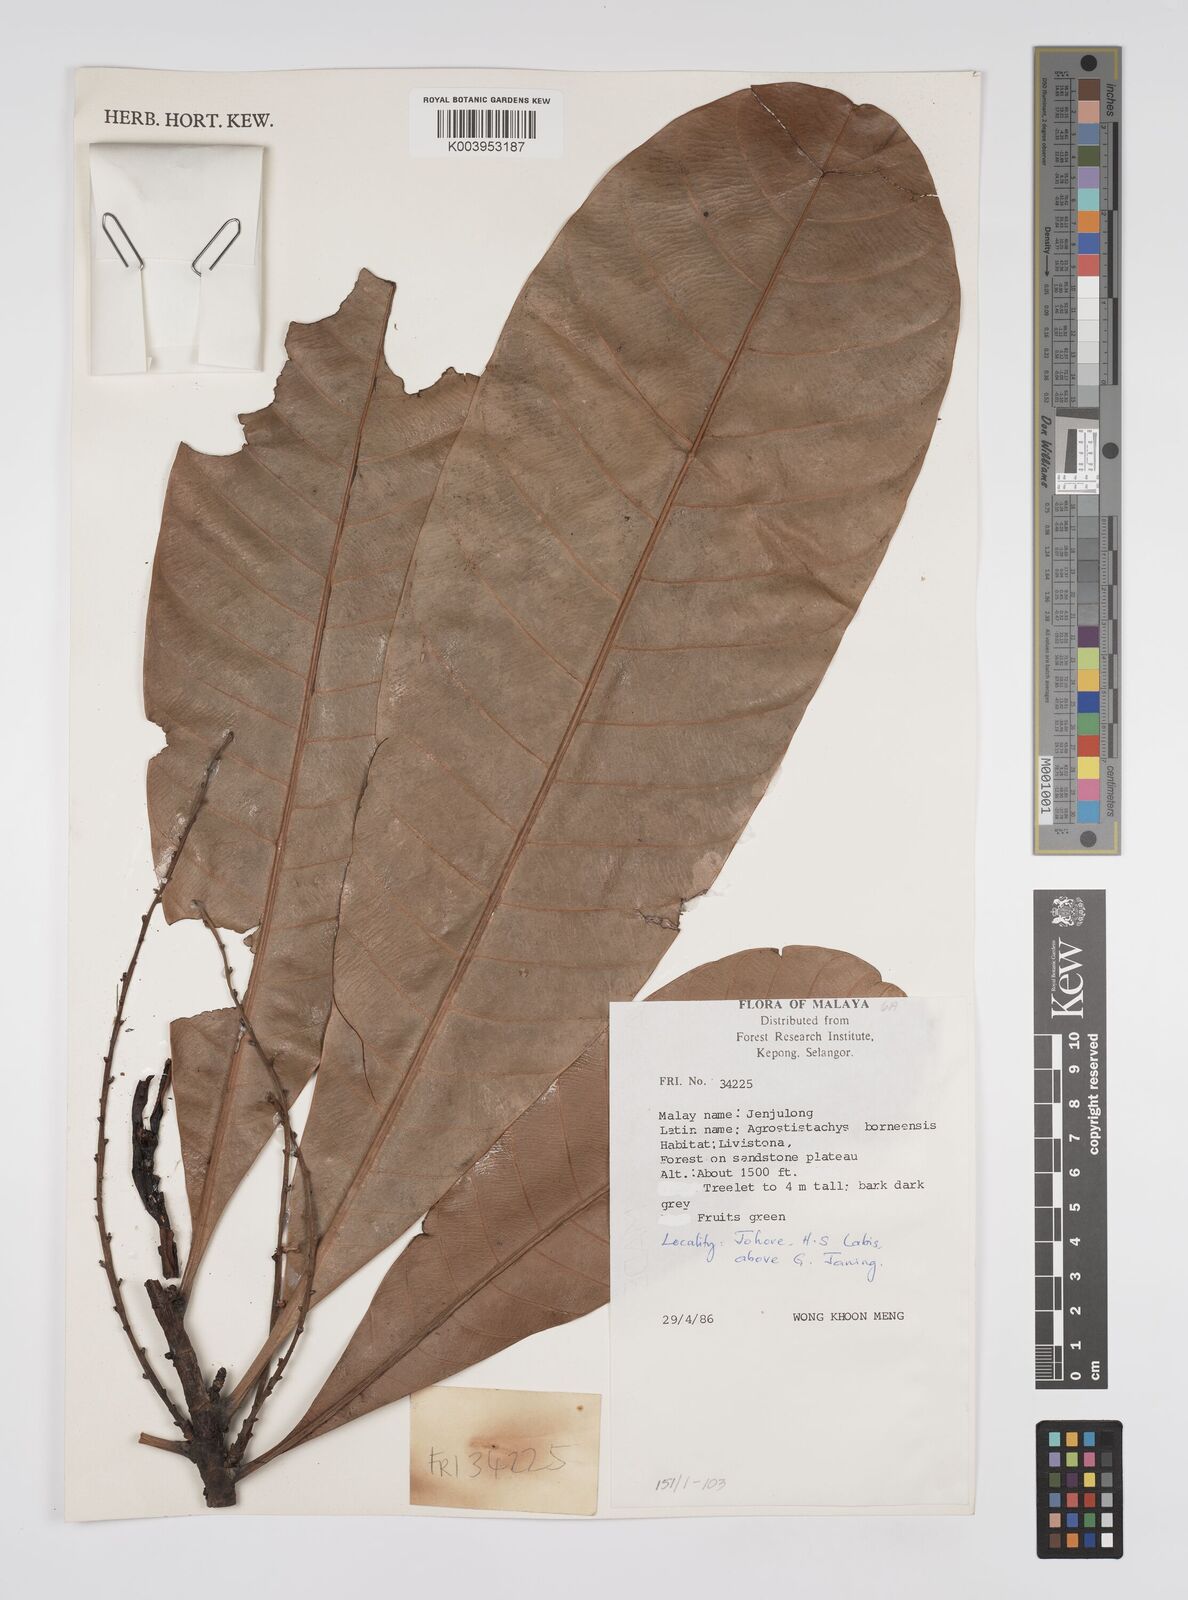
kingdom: Plantae
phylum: Tracheophyta
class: Magnoliopsida
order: Malpighiales
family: Euphorbiaceae
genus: Agrostistachys
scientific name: Agrostistachys borneensis
